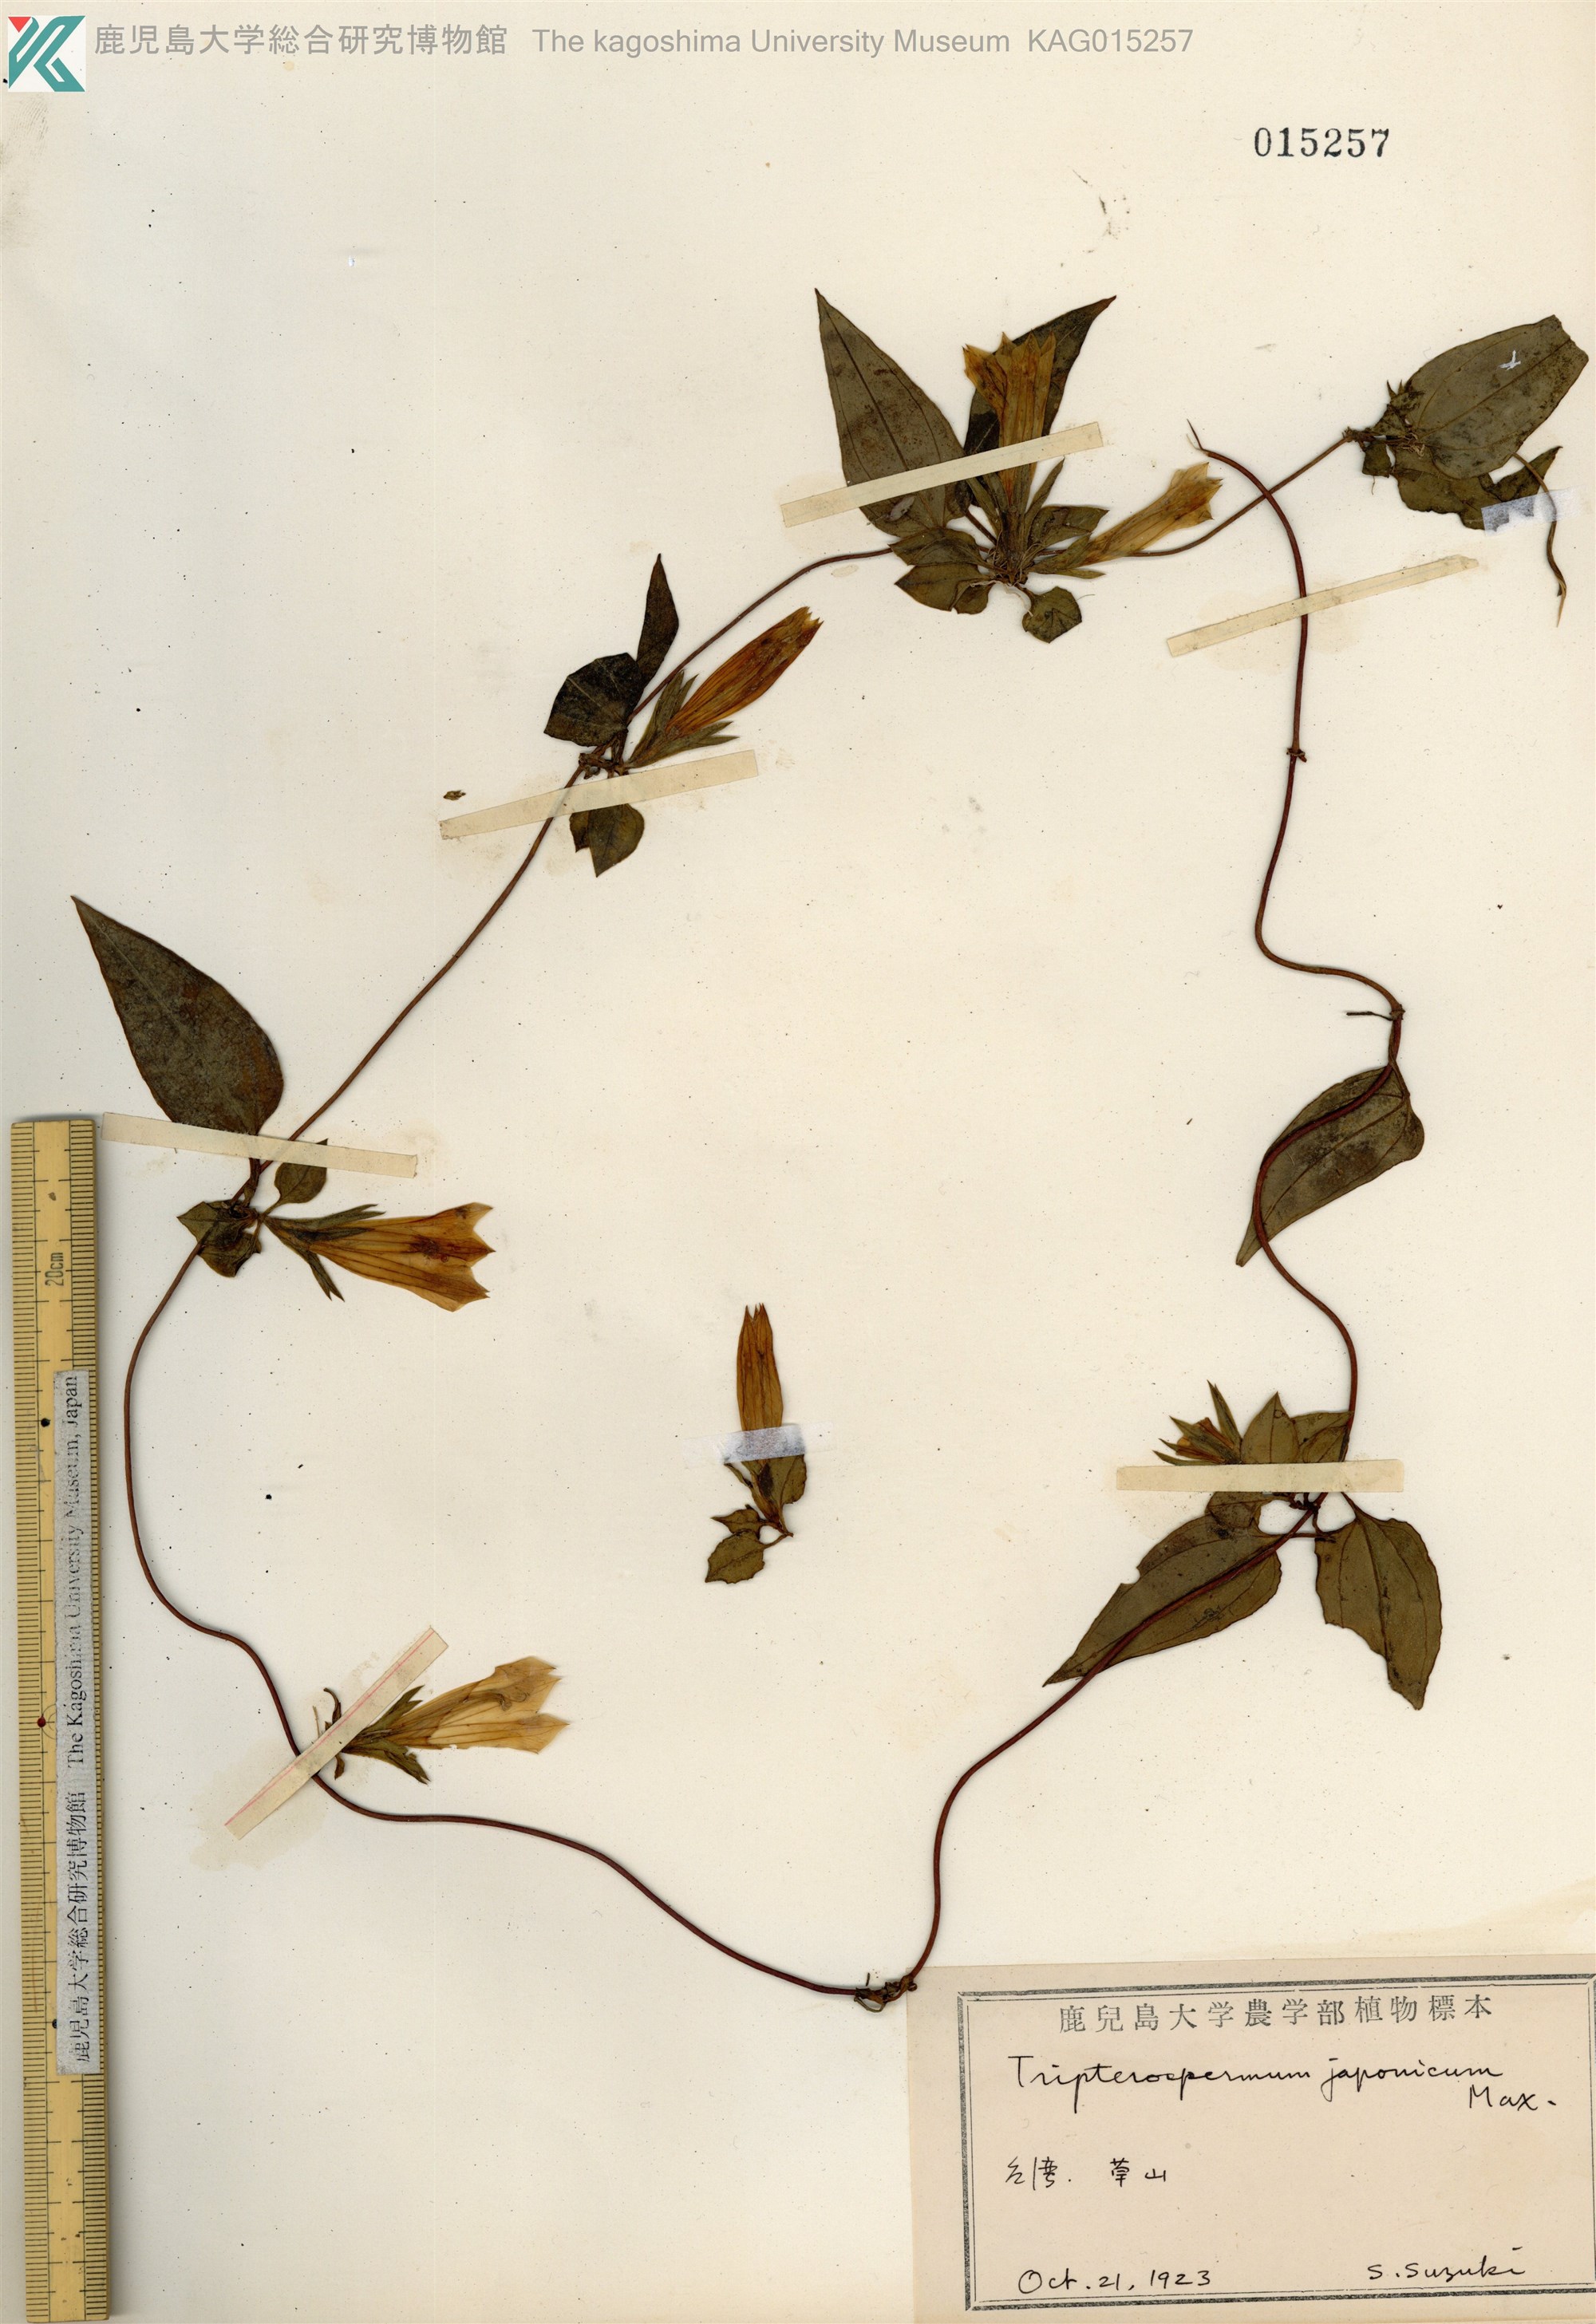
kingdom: Plantae
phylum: Tracheophyta
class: Magnoliopsida
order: Gentianales
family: Gentianaceae
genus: Tripterospermum
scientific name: Tripterospermum taiwanense
